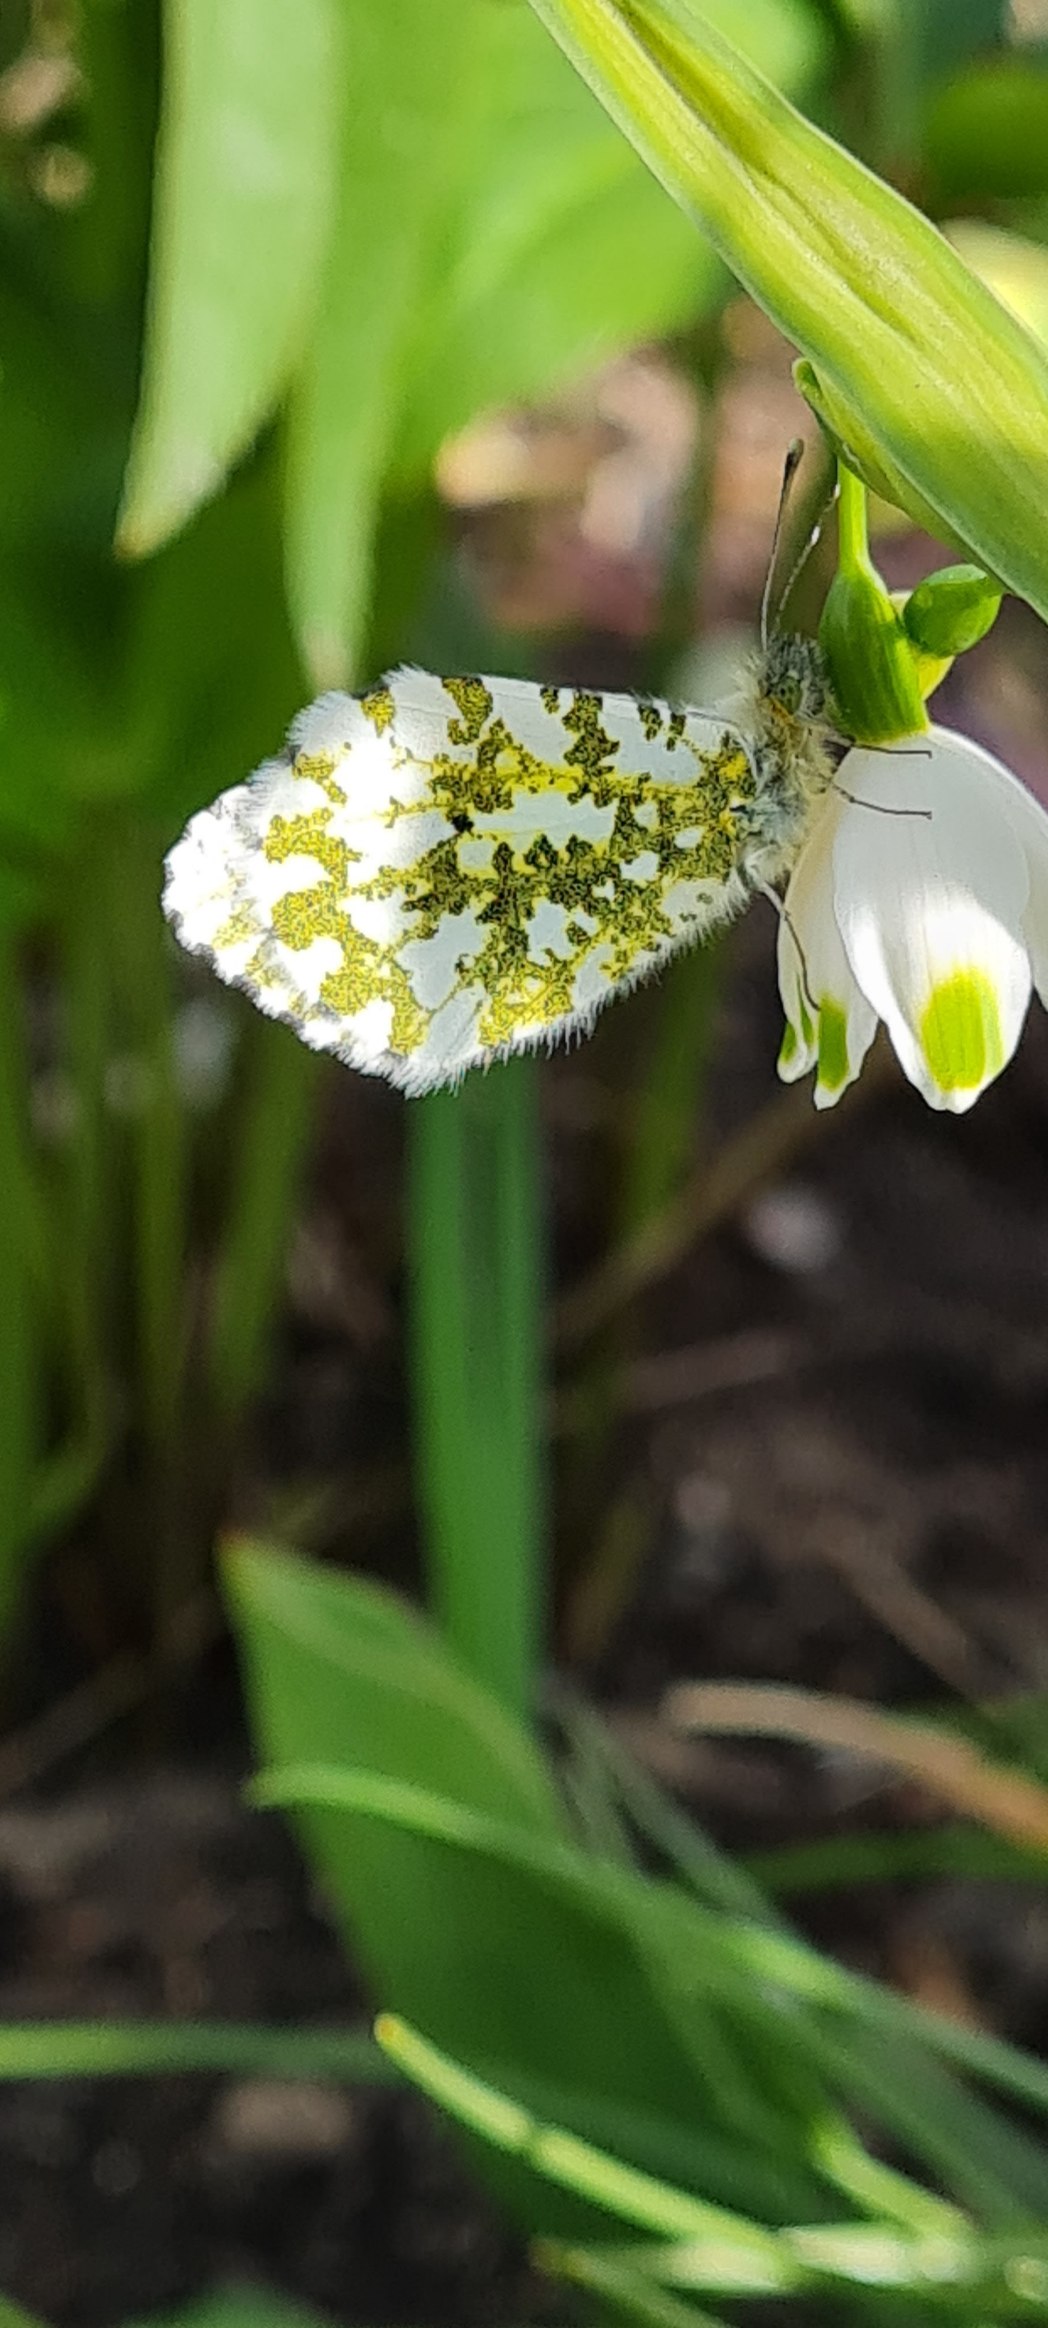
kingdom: Animalia
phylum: Arthropoda
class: Insecta
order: Lepidoptera
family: Pieridae
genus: Anthocharis
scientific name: Anthocharis cardamines
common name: Aurora
